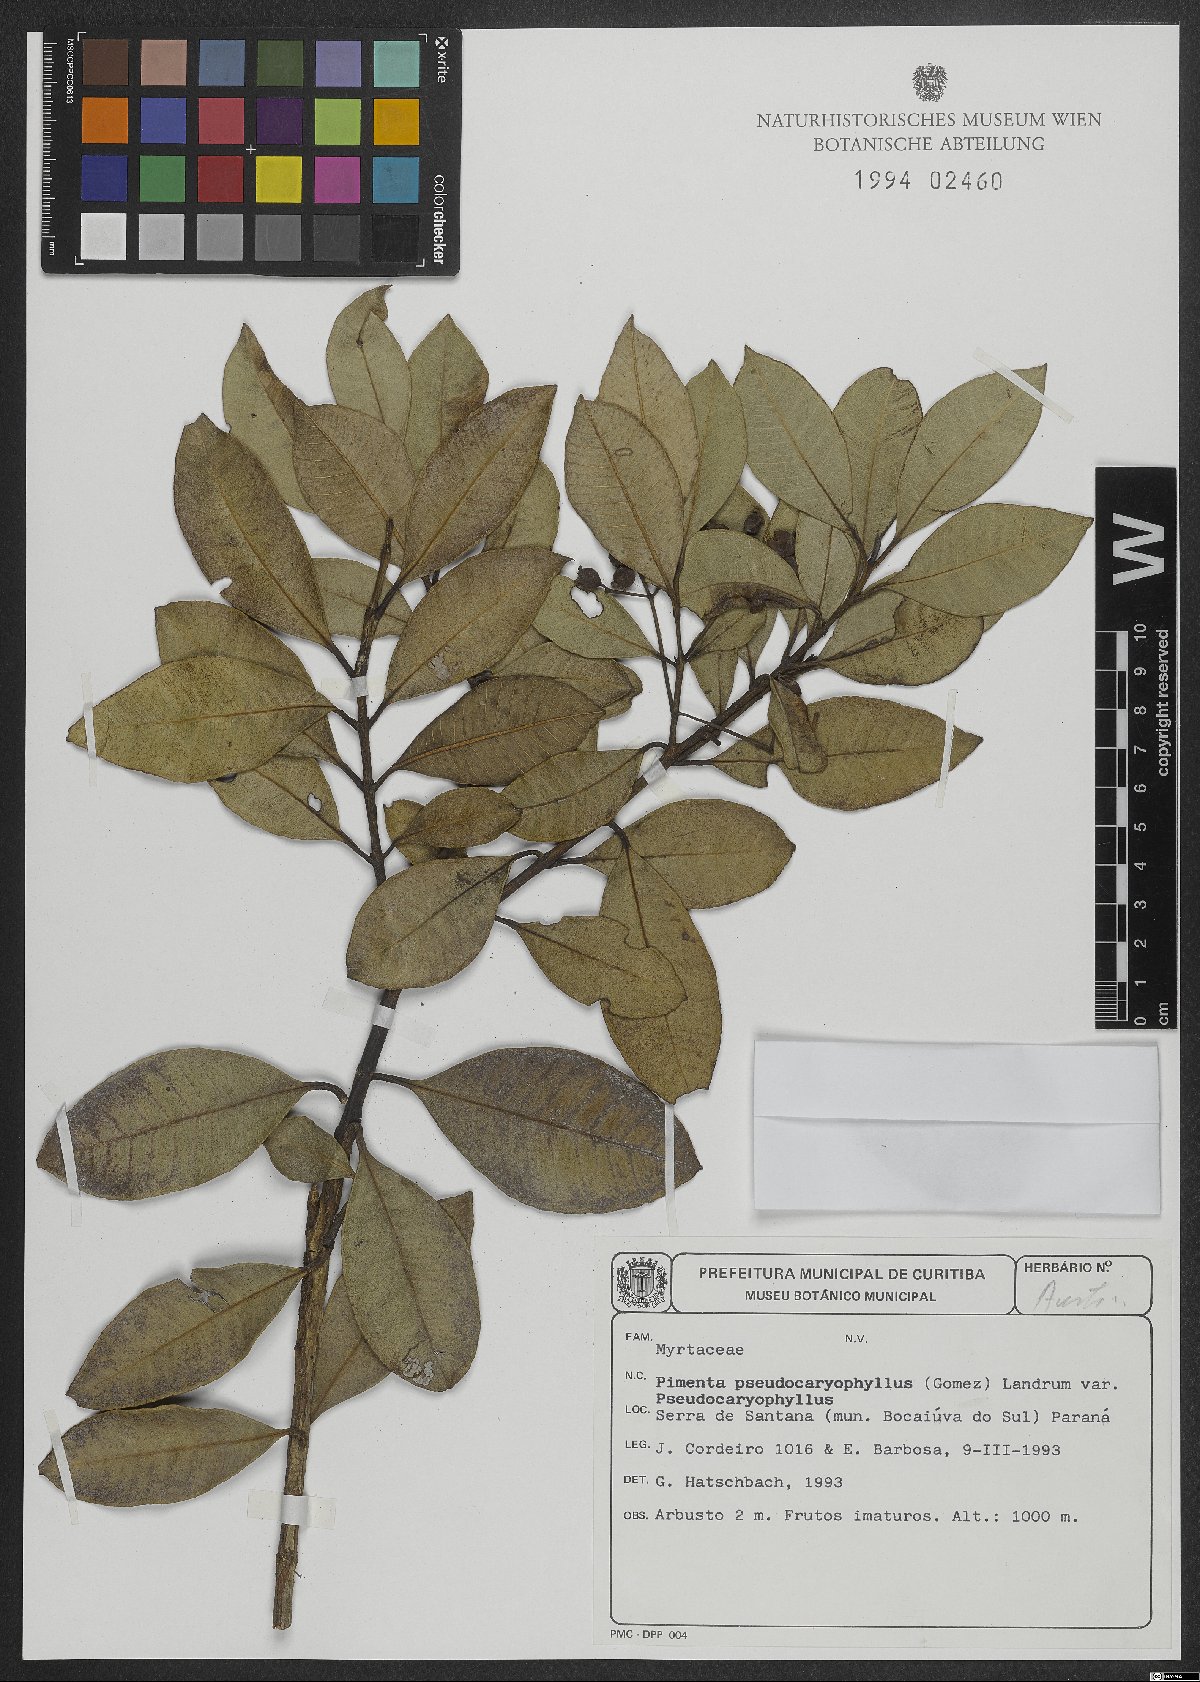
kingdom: Plantae
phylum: Tracheophyta
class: Magnoliopsida
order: Myrtales
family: Myrtaceae
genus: Pimenta
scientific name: Pimenta pseudocaryophyllus
